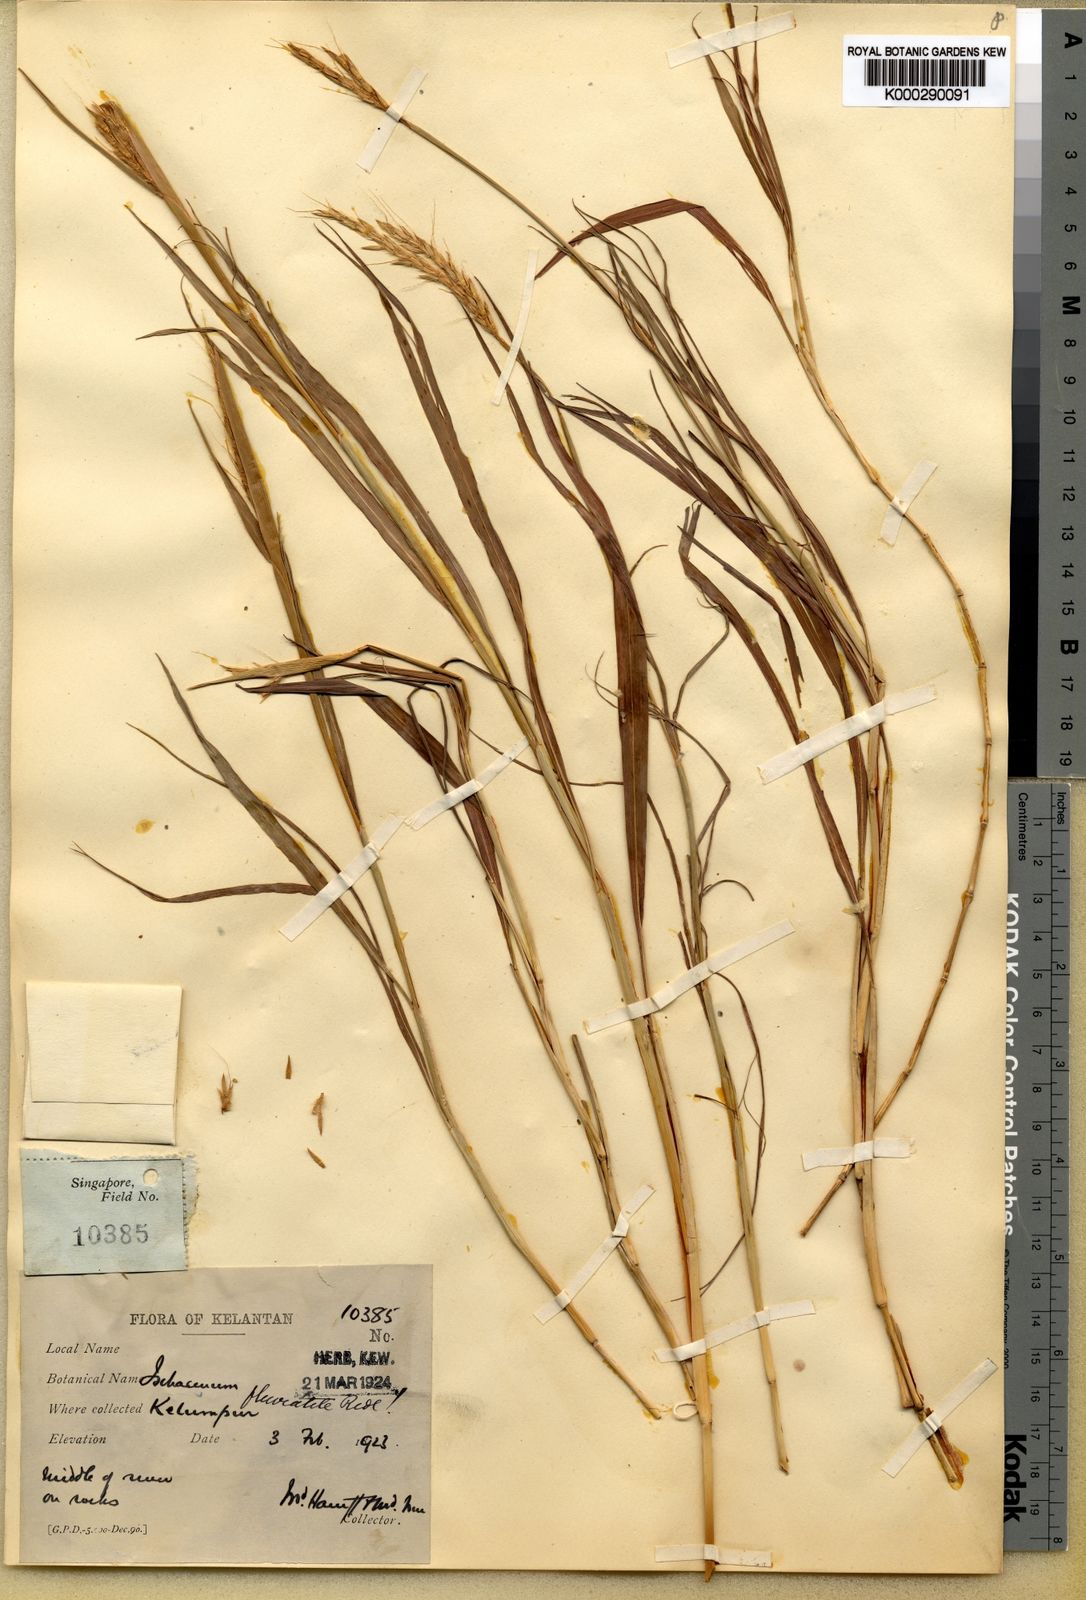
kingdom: Plantae
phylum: Tracheophyta
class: Liliopsida
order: Poales
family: Poaceae
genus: Ischaemum
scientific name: Ischaemum barbatum
